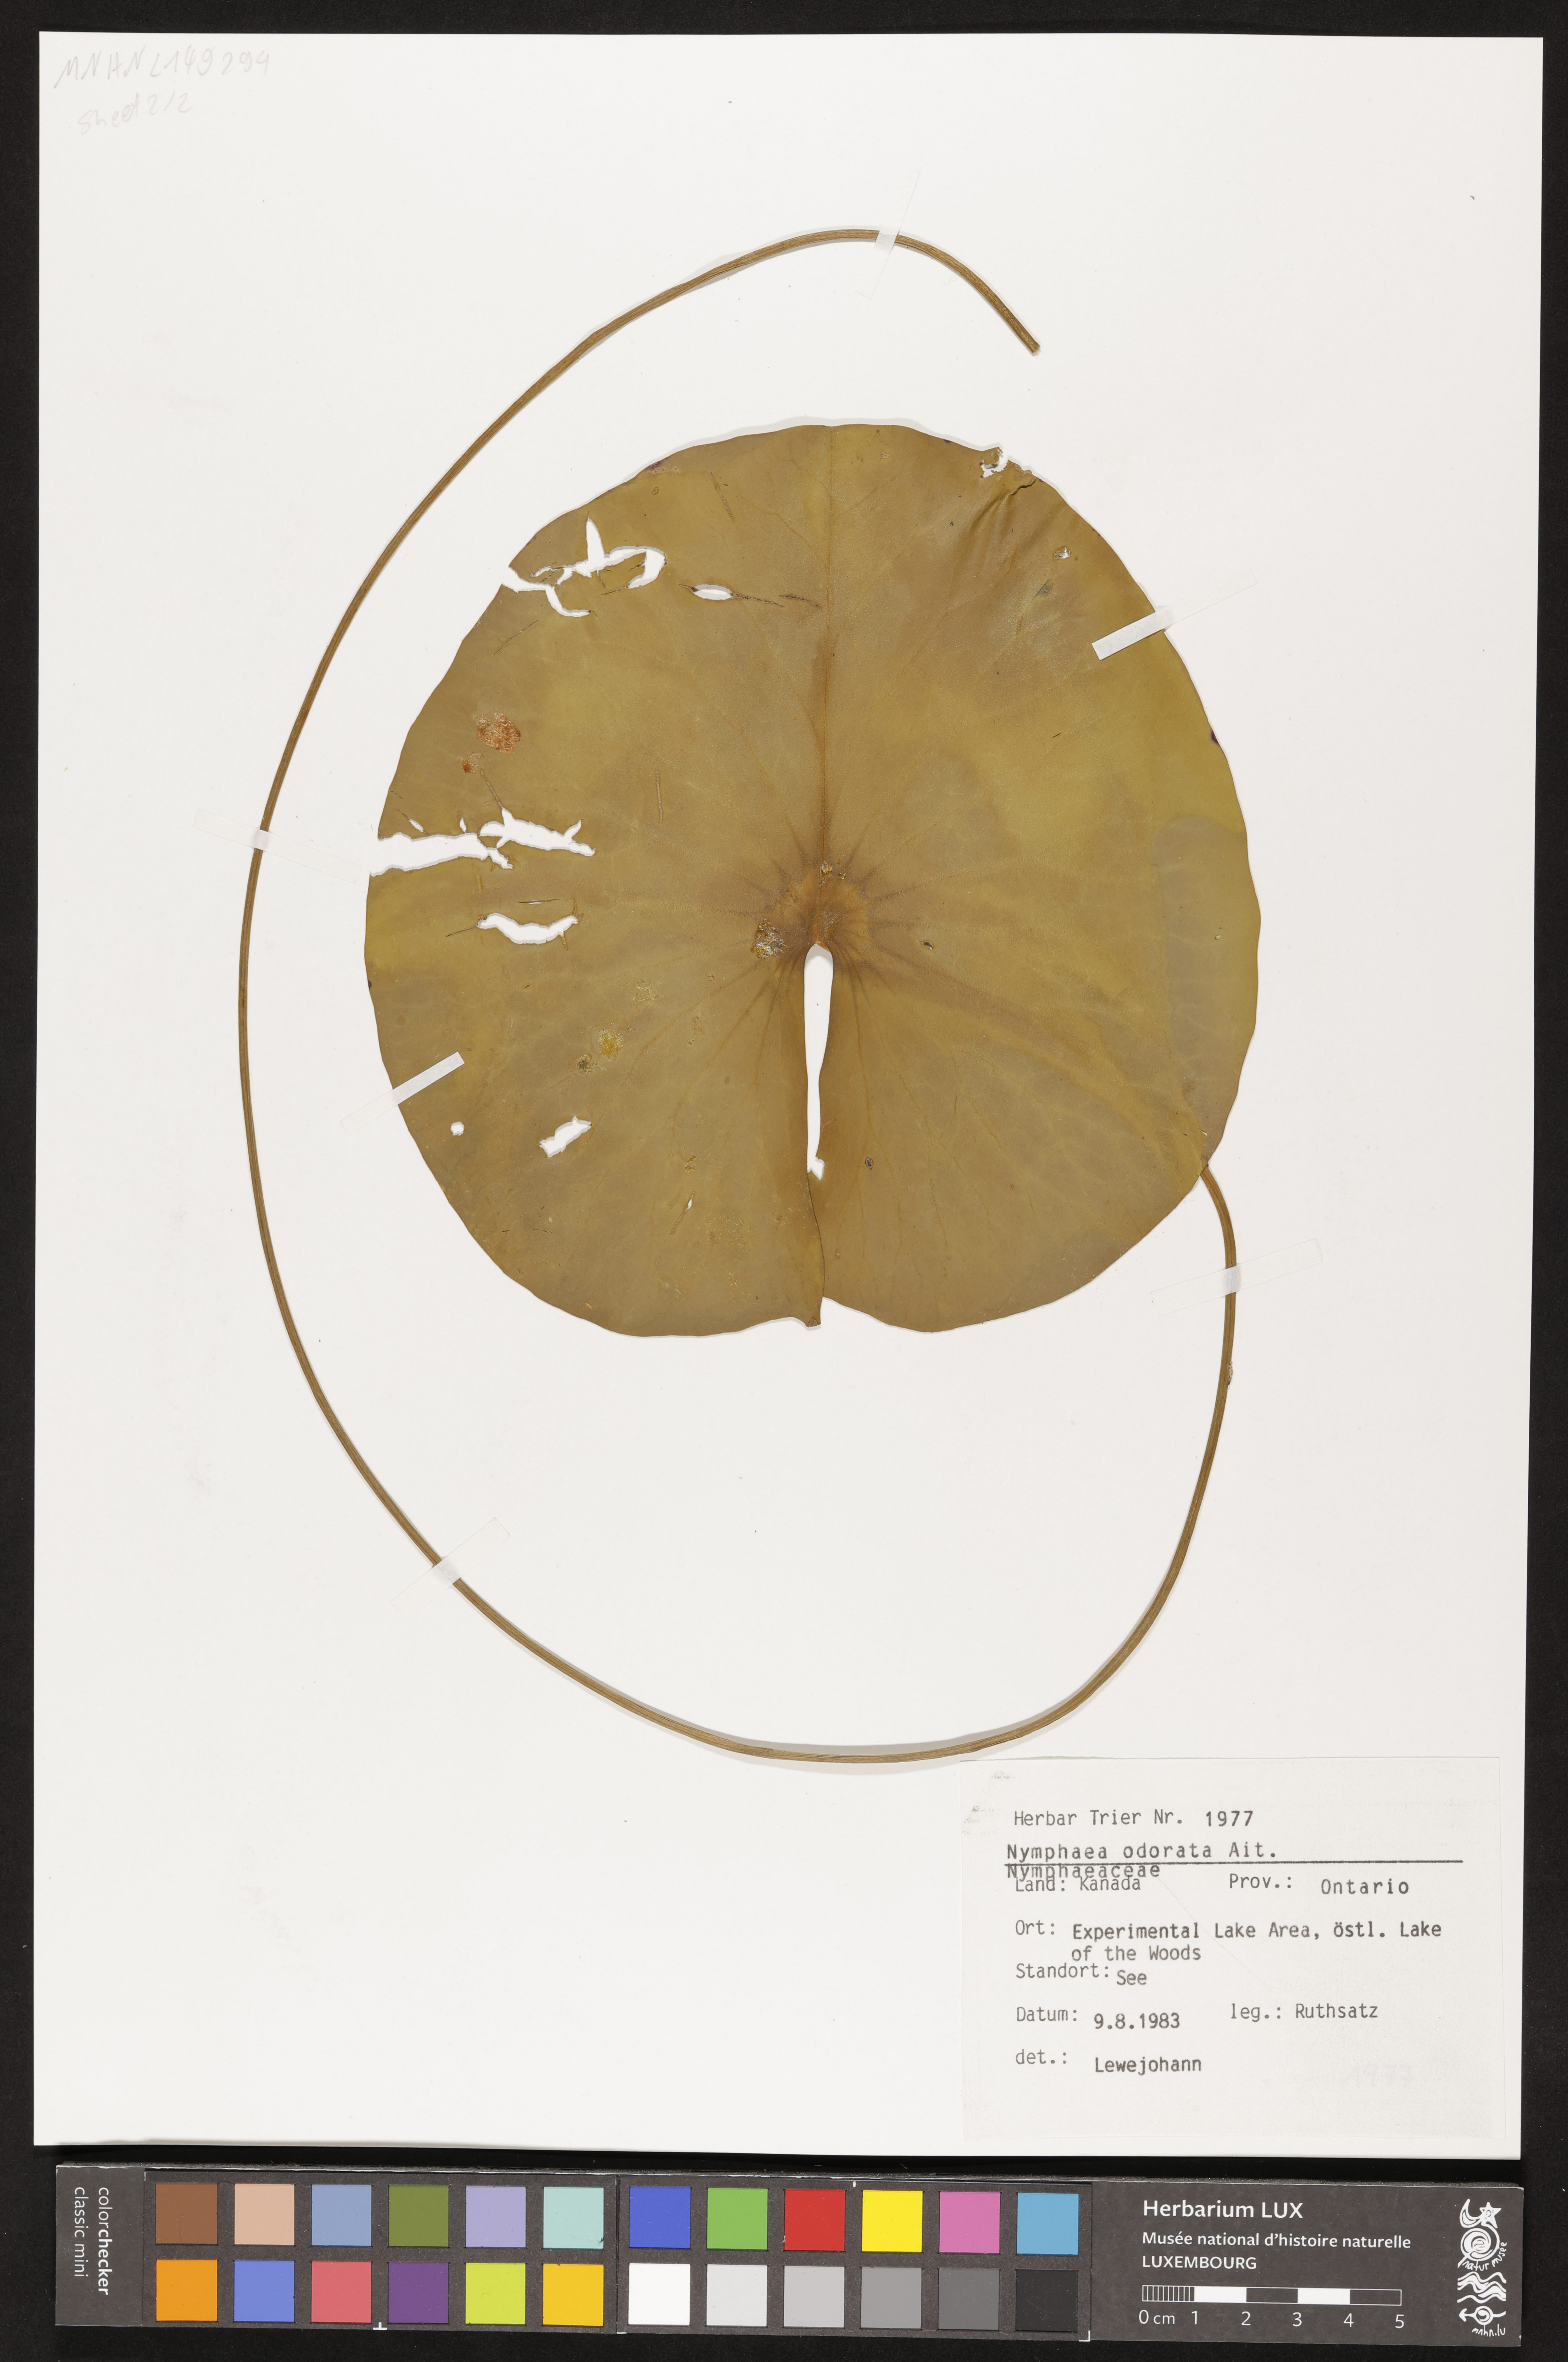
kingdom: Plantae
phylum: Tracheophyta
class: Magnoliopsida
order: Nymphaeales
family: Nymphaeaceae
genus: Nymphaea
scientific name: Nymphaea odorata
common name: Fragrant water-lily
